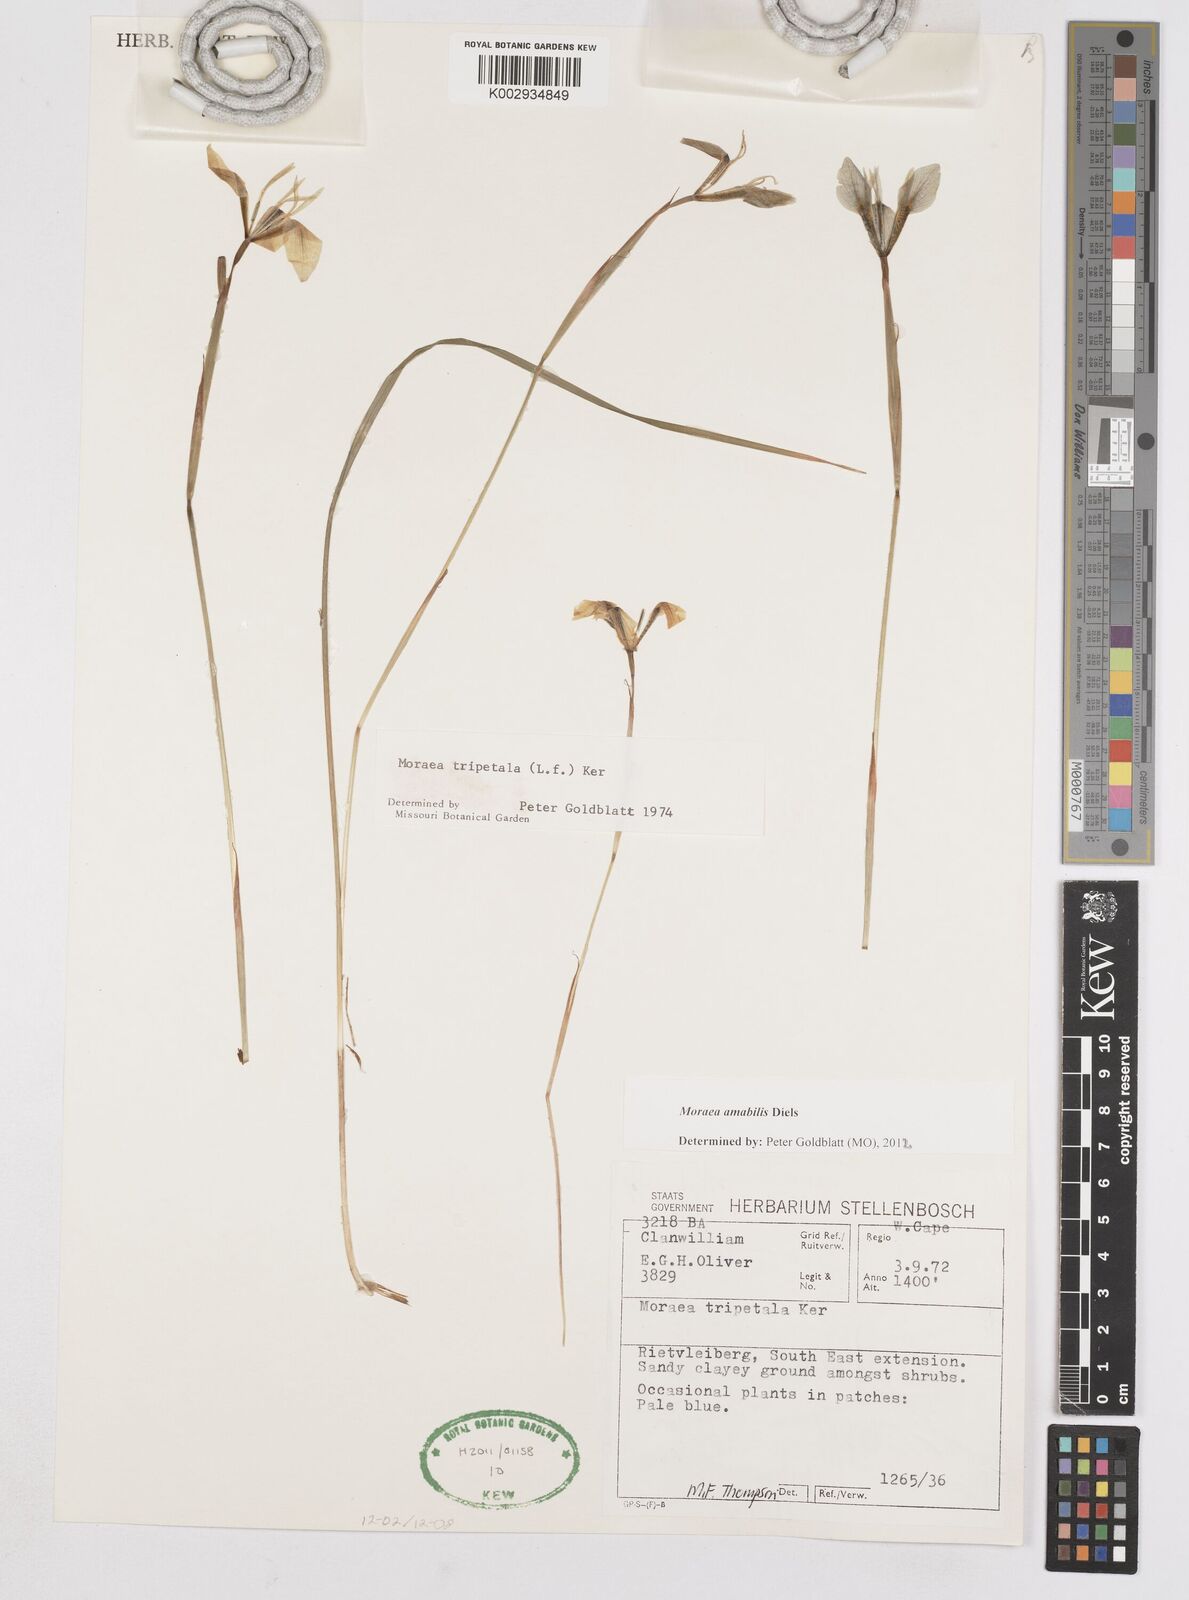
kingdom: Plantae
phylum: Tracheophyta
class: Liliopsida
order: Asparagales
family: Iridaceae
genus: Moraea
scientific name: Moraea amabilis
